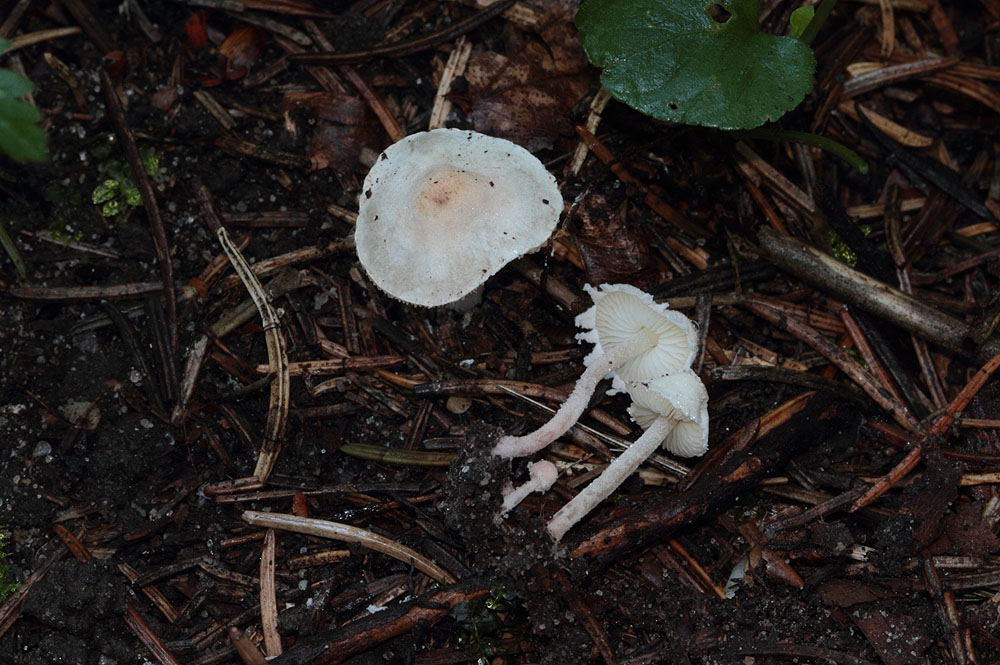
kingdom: Fungi
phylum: Basidiomycota
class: Agaricomycetes
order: Agaricales
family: Agaricaceae
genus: Cystolepiota
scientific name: Cystolepiota seminuda
